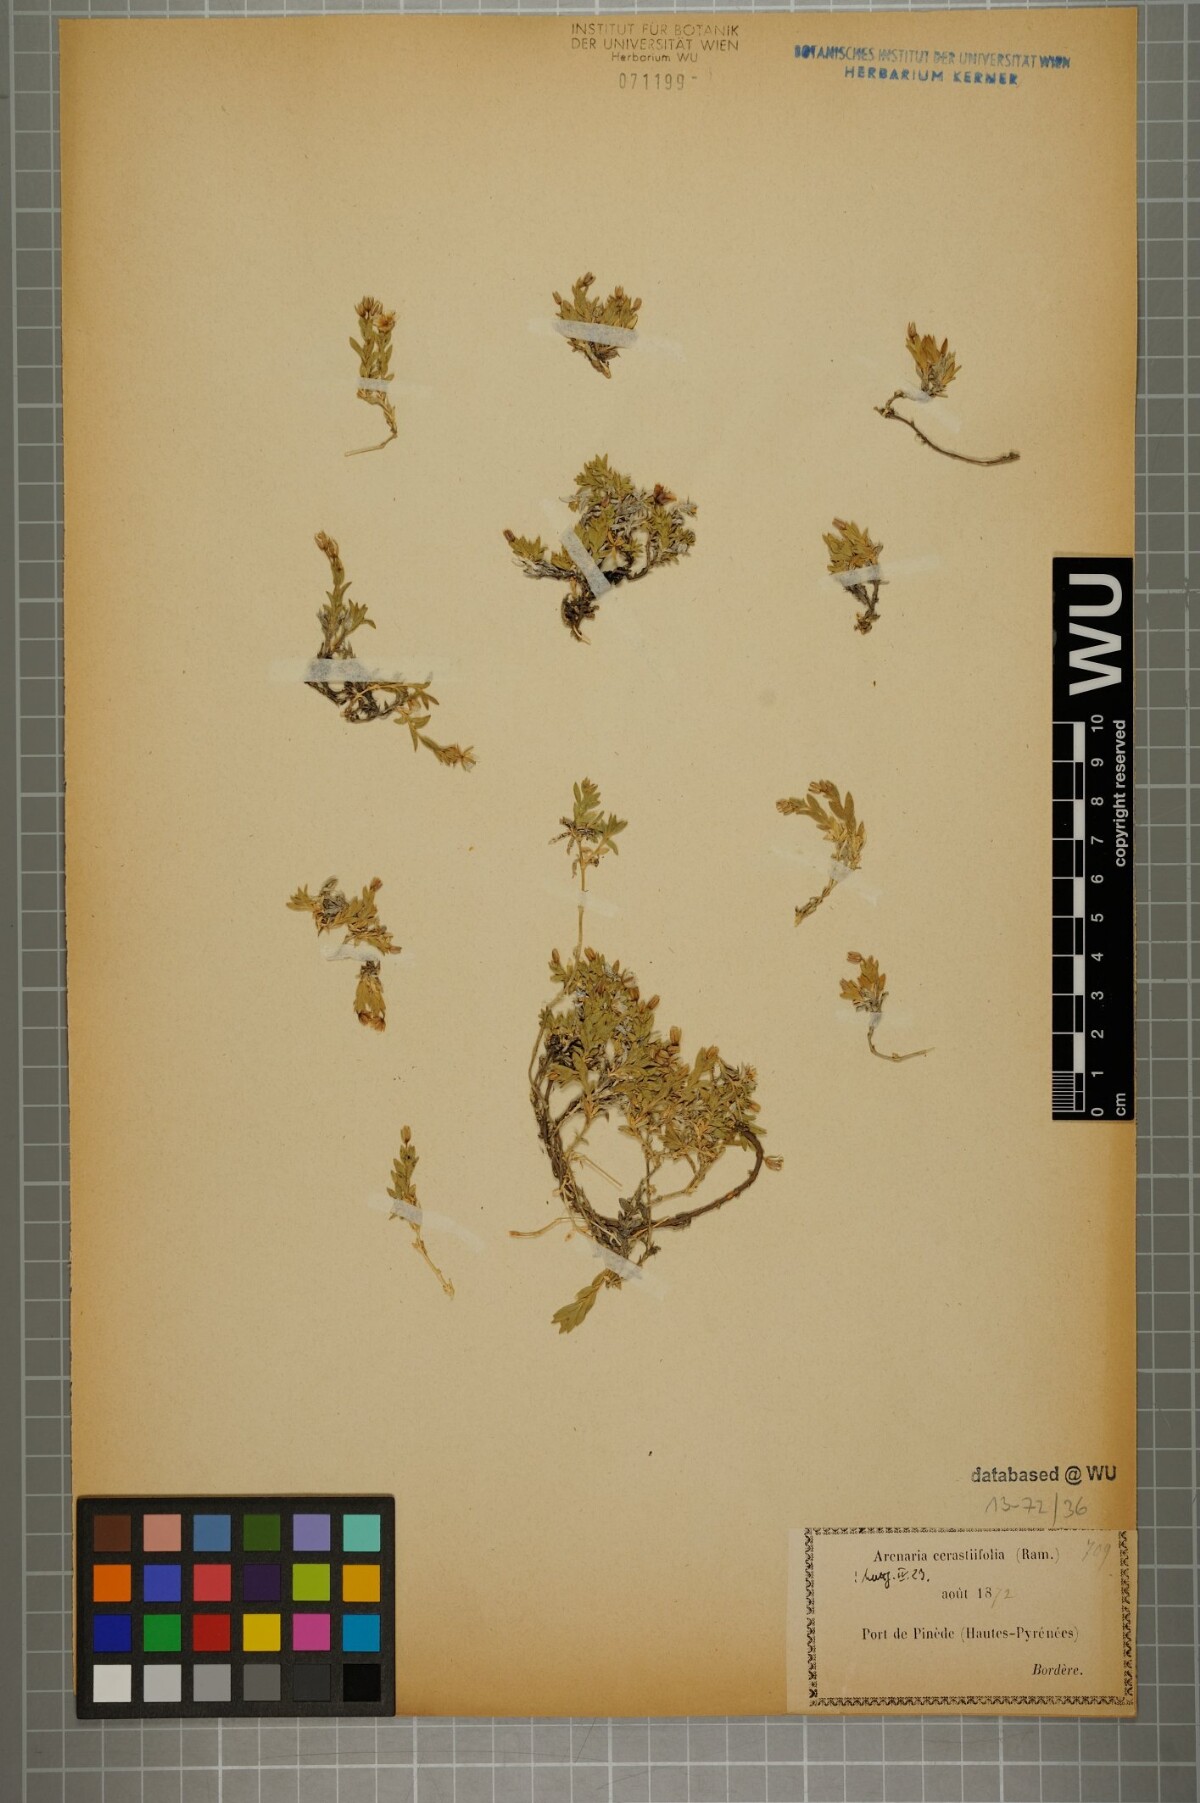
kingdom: Plantae
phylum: Tracheophyta
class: Magnoliopsida
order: Caryophyllales
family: Caryophyllaceae
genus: Facchinia
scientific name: Facchinia cerastiifolia
